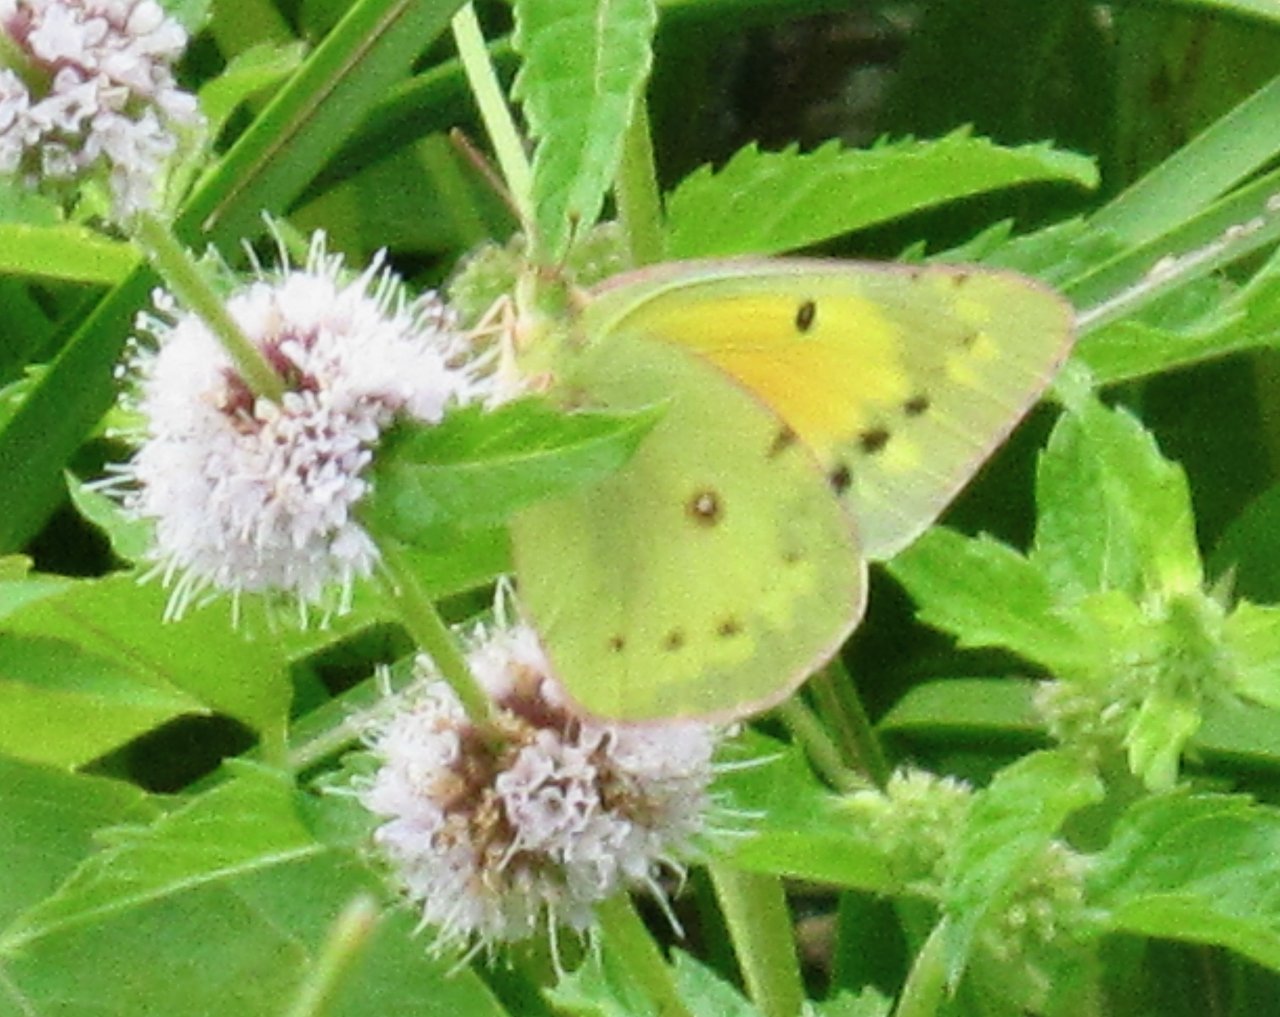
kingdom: Animalia
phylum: Arthropoda
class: Insecta
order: Lepidoptera
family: Pieridae
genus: Colias
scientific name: Colias eurytheme
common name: Orange Sulphur
